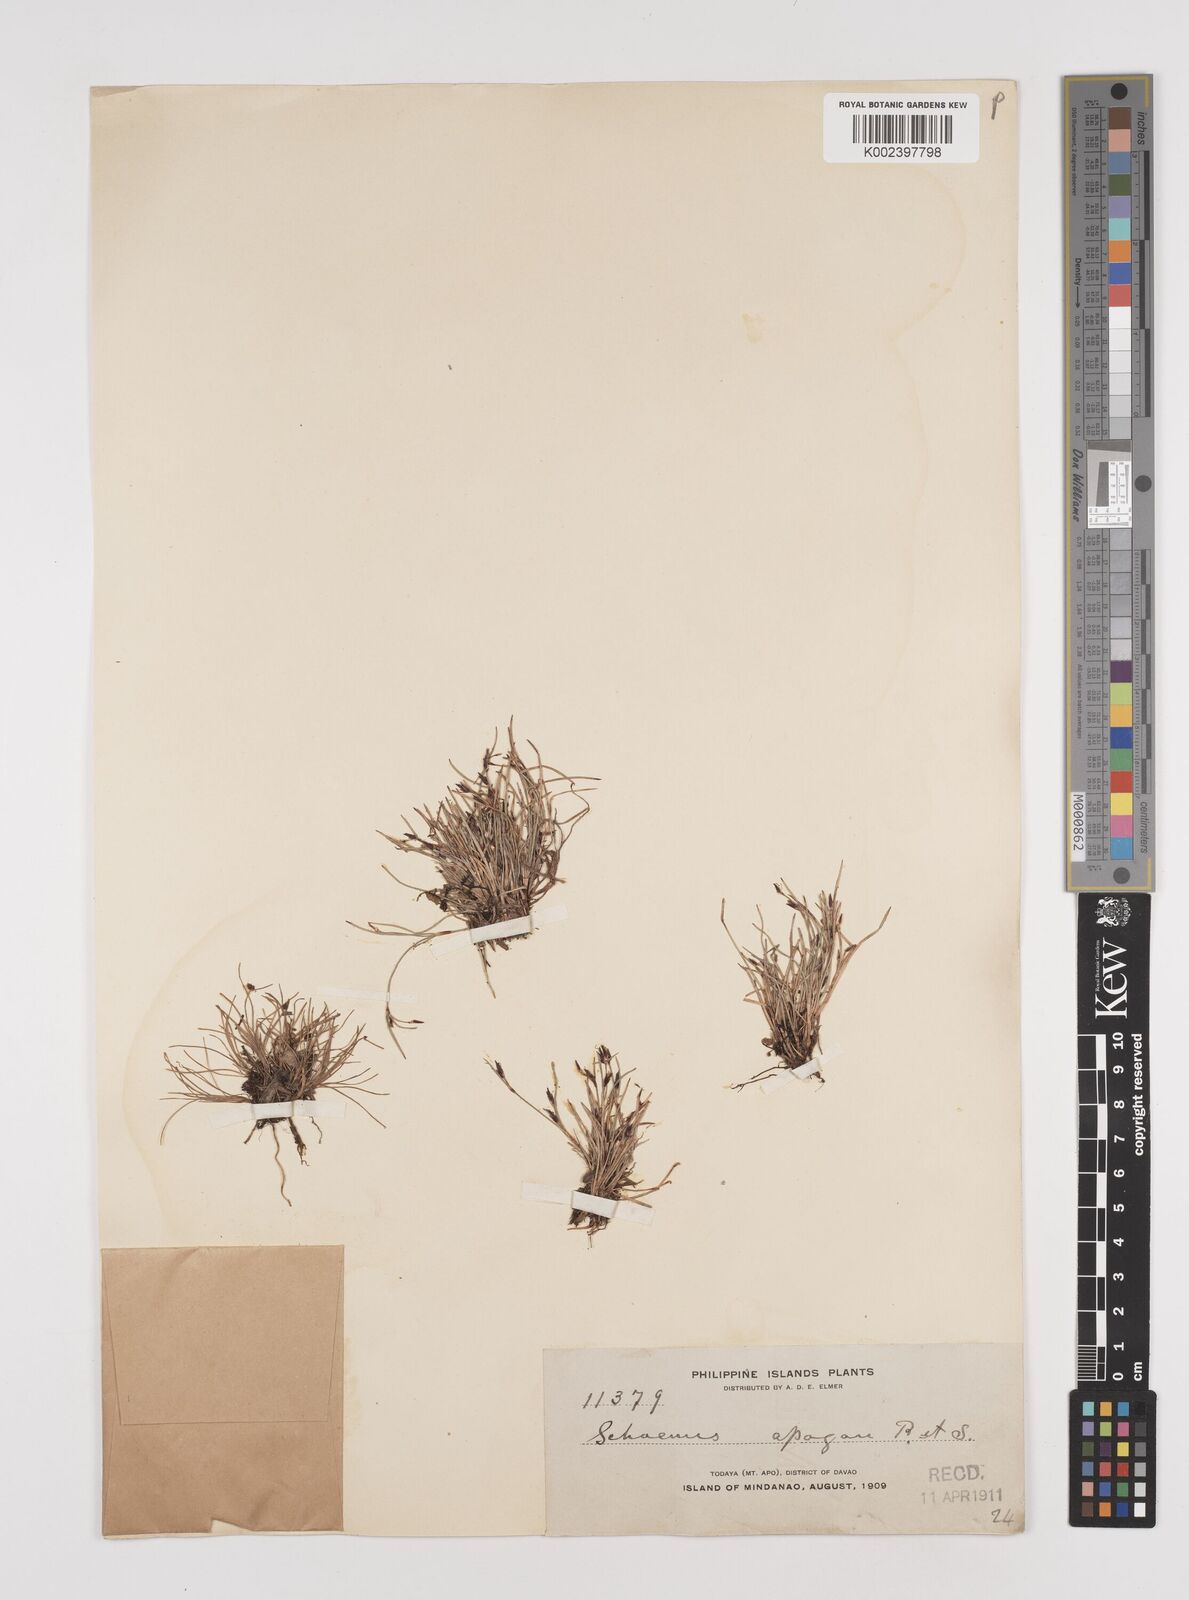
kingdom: Plantae
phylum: Tracheophyta
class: Liliopsida
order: Poales
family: Cyperaceae
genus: Schoenus
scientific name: Schoenus maschalinus
